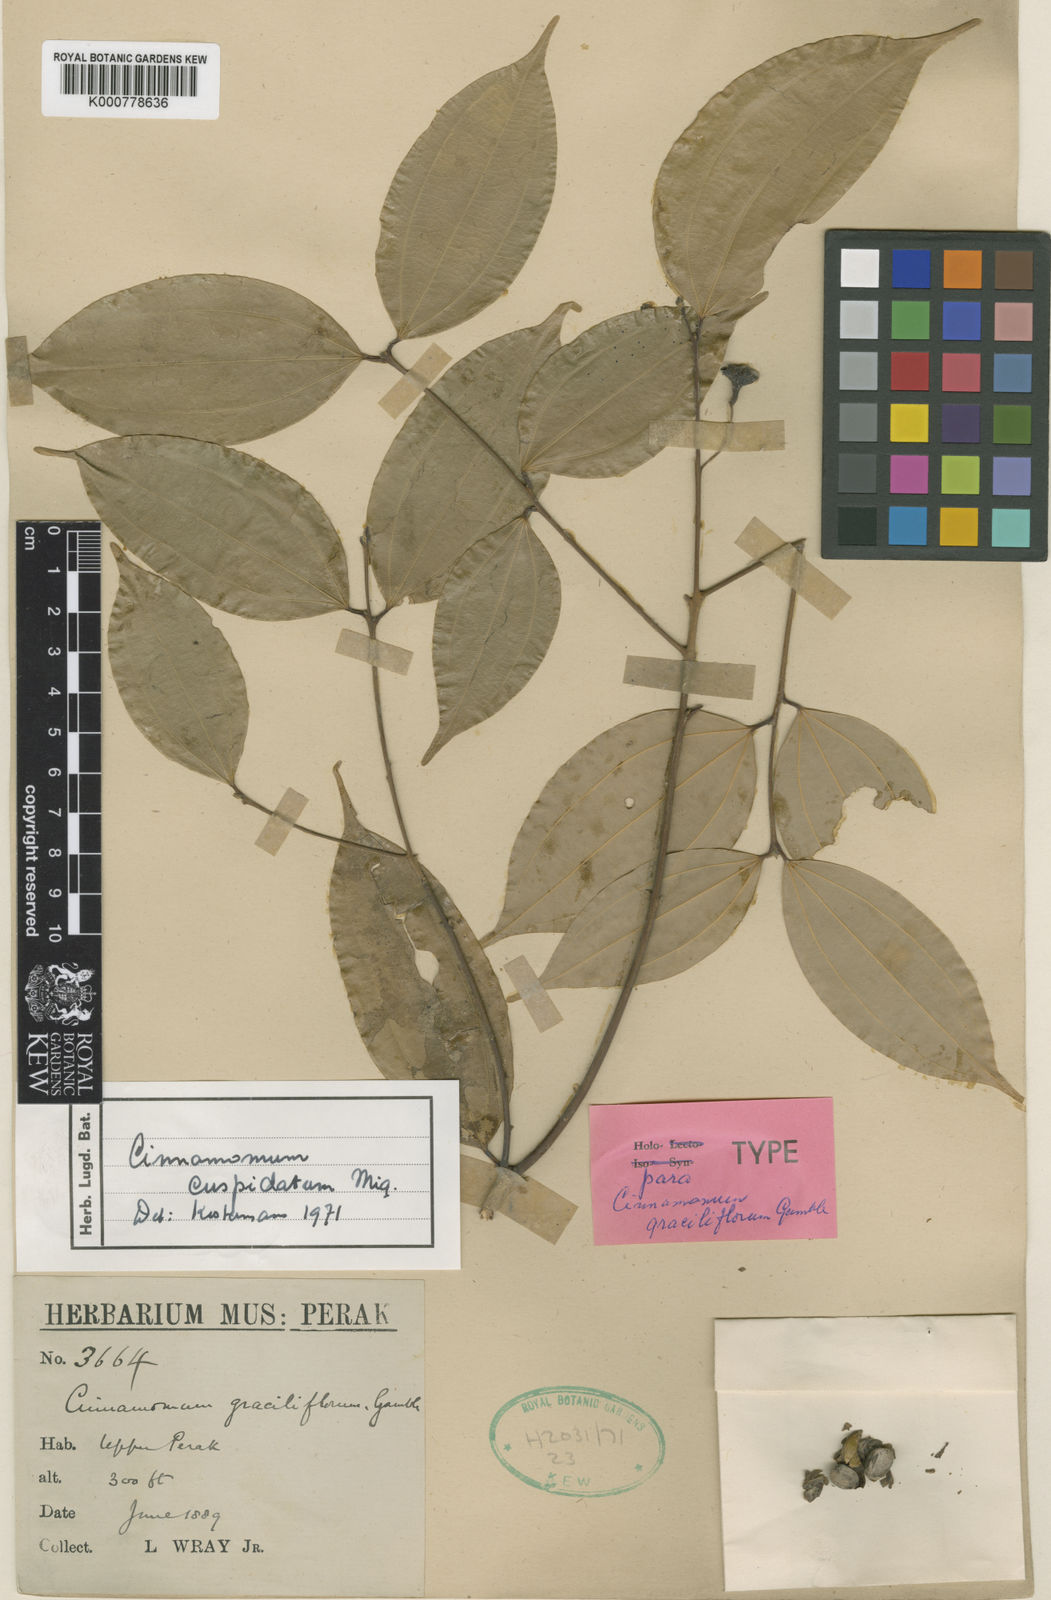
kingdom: Plantae
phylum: Tracheophyta
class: Magnoliopsida
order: Laurales
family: Lauraceae
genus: Cinnamomum
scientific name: Cinnamomum cuspidatum
